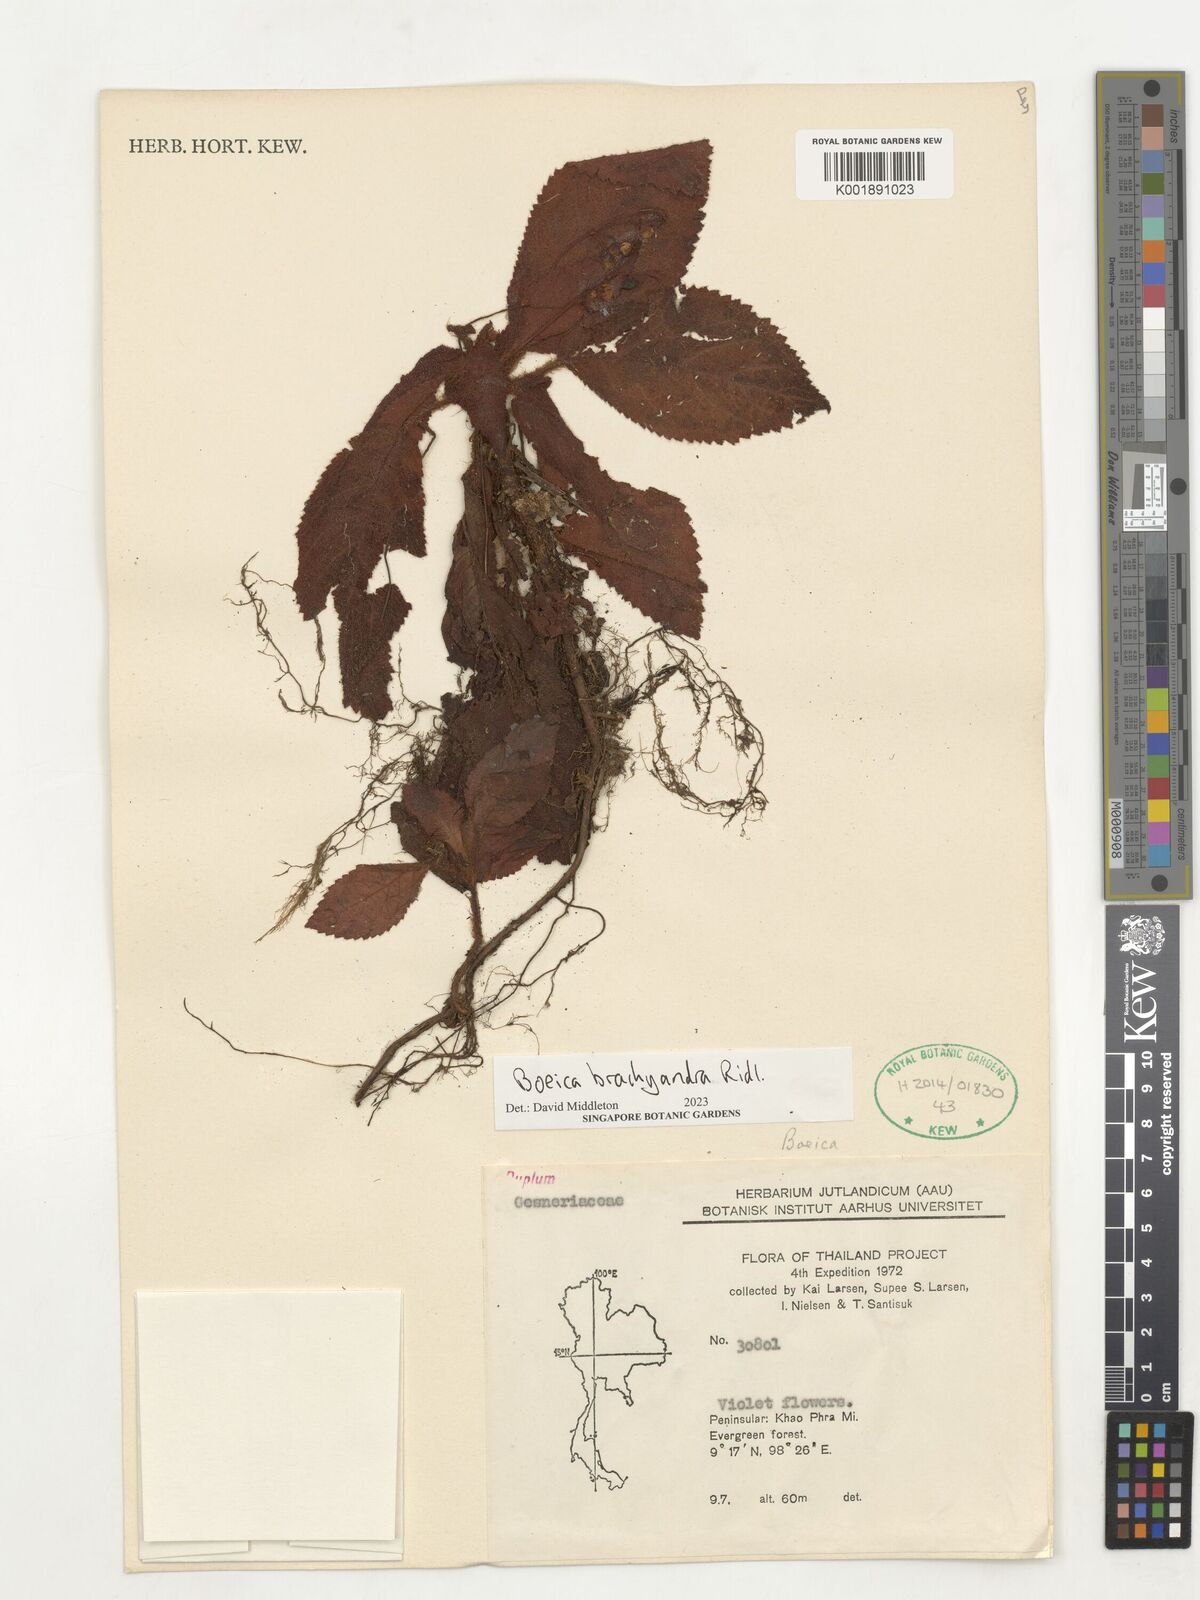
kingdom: Plantae
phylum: Tracheophyta
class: Magnoliopsida
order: Lamiales
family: Gesneriaceae
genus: Boeica
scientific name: Boeica brachyandra
